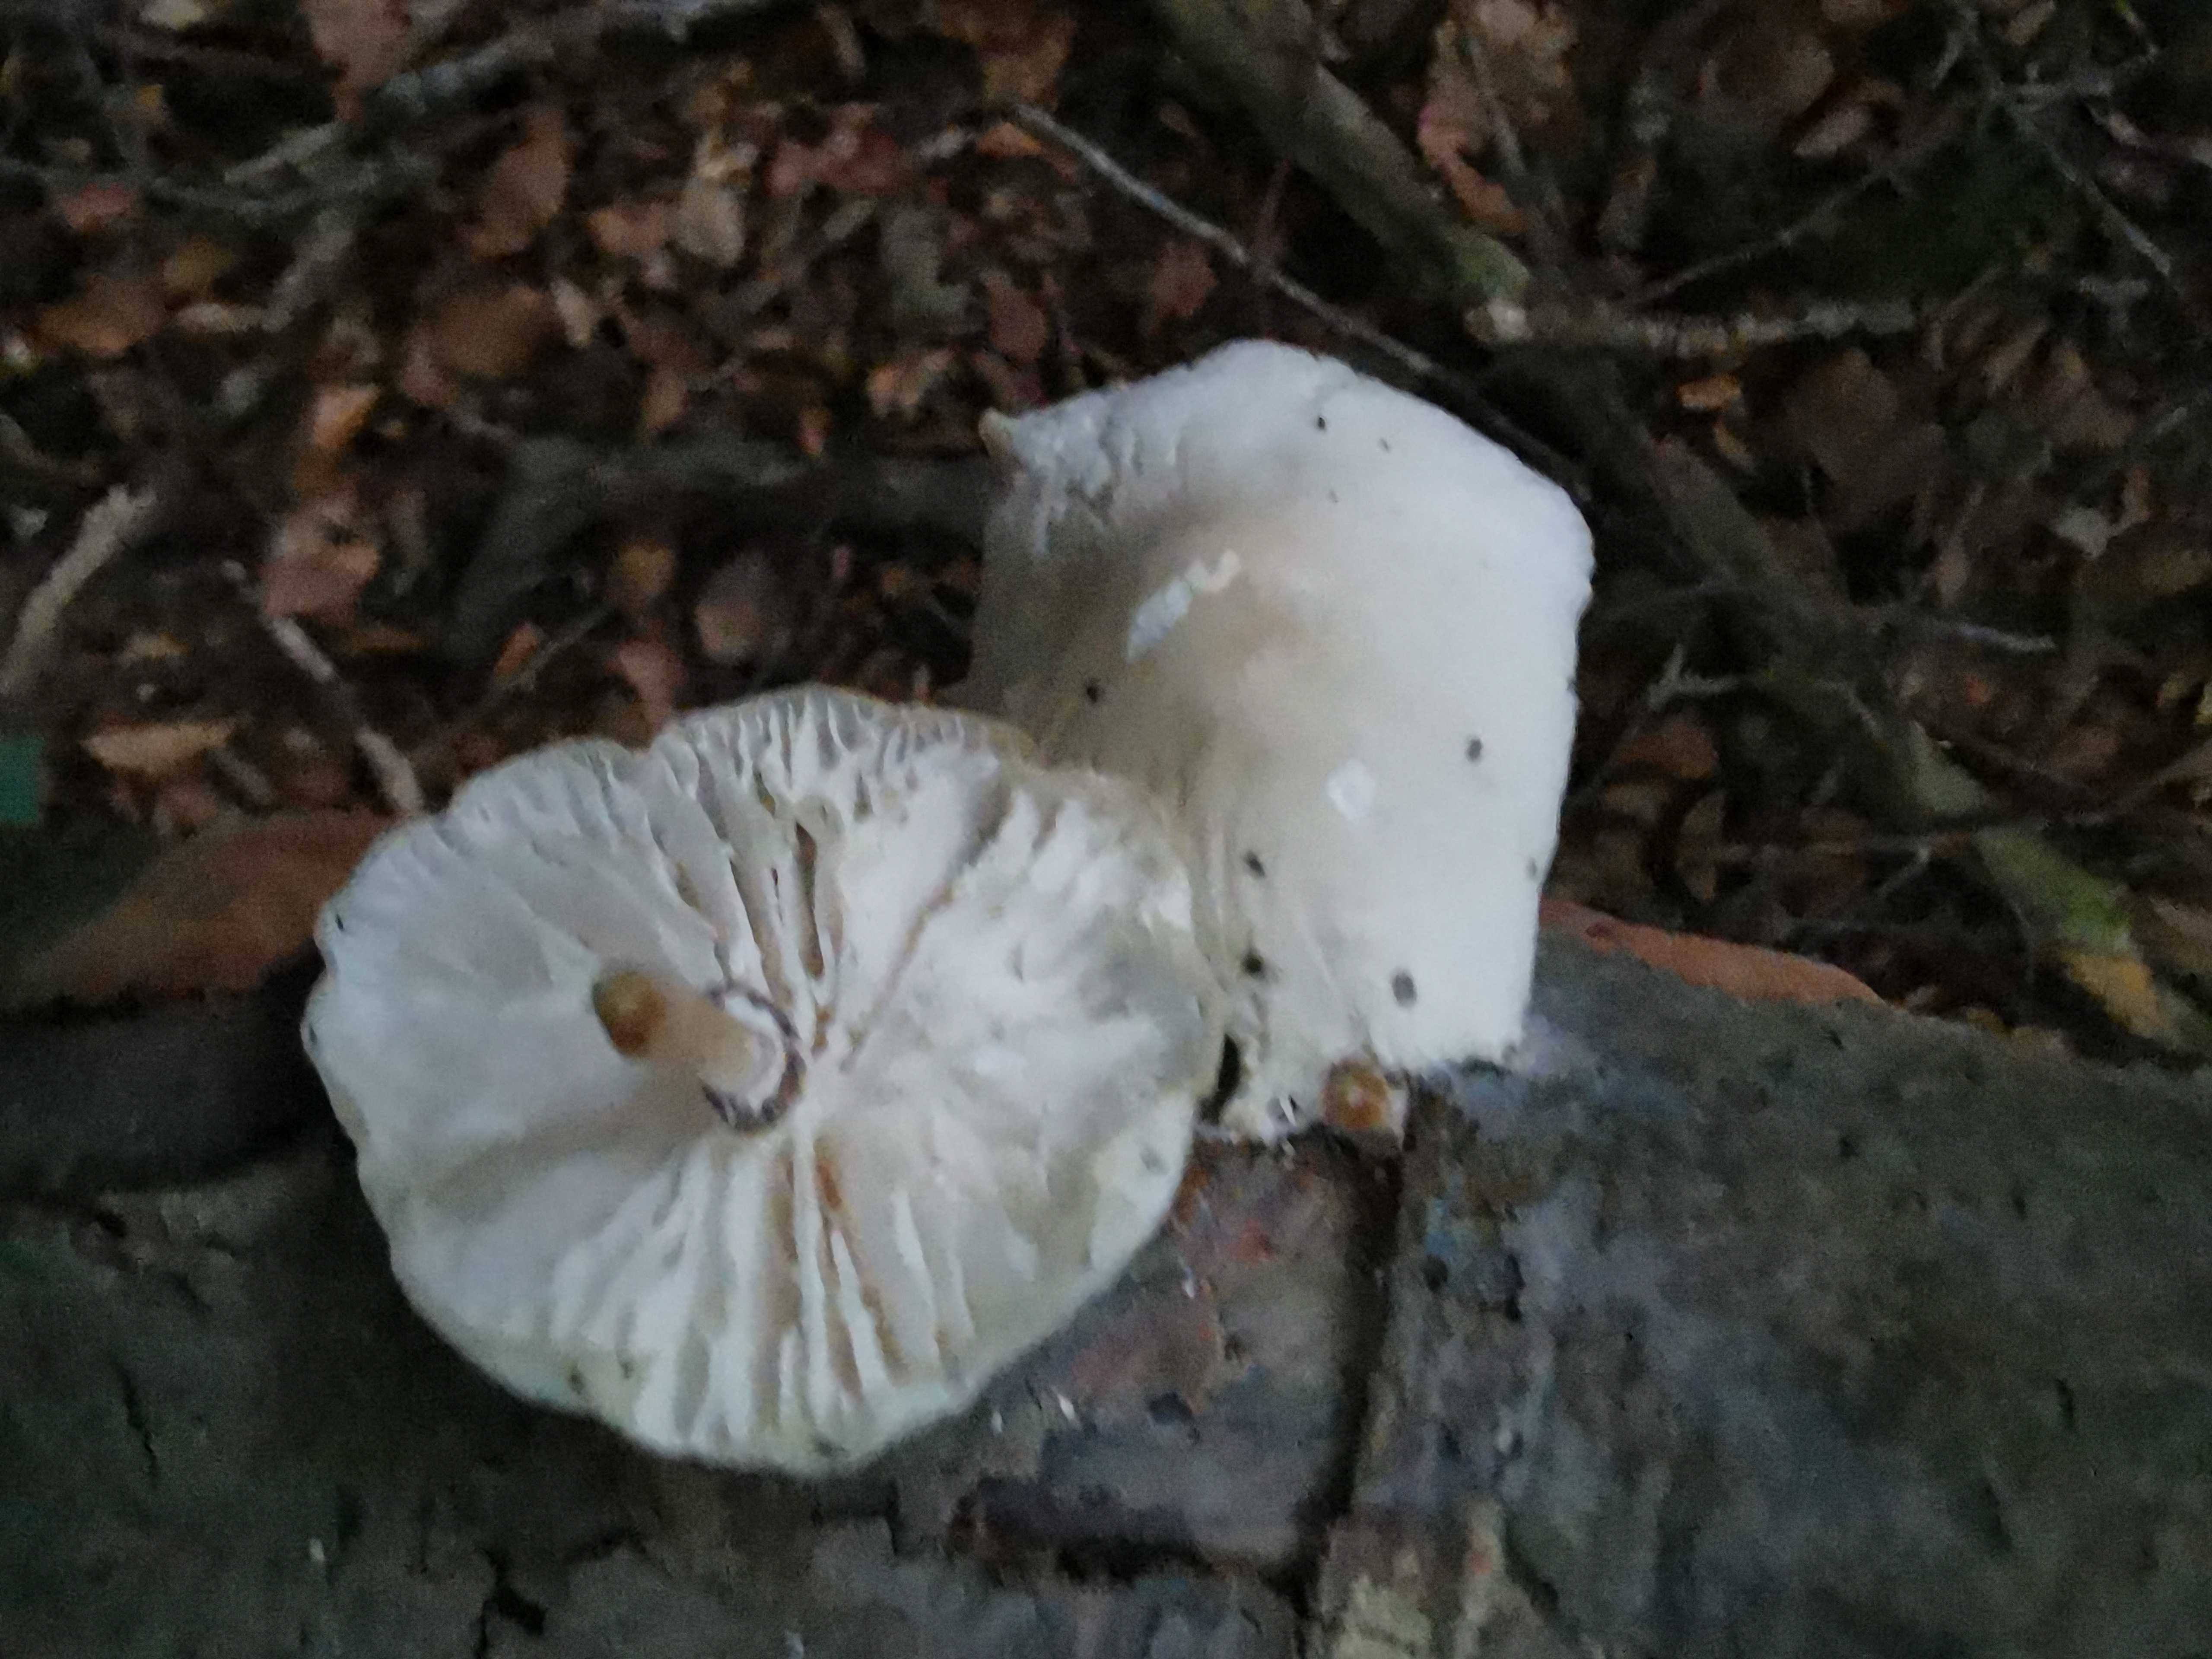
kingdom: Fungi
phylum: Basidiomycota
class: Agaricomycetes
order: Agaricales
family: Physalacriaceae
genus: Mucidula
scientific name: Mucidula mucida
